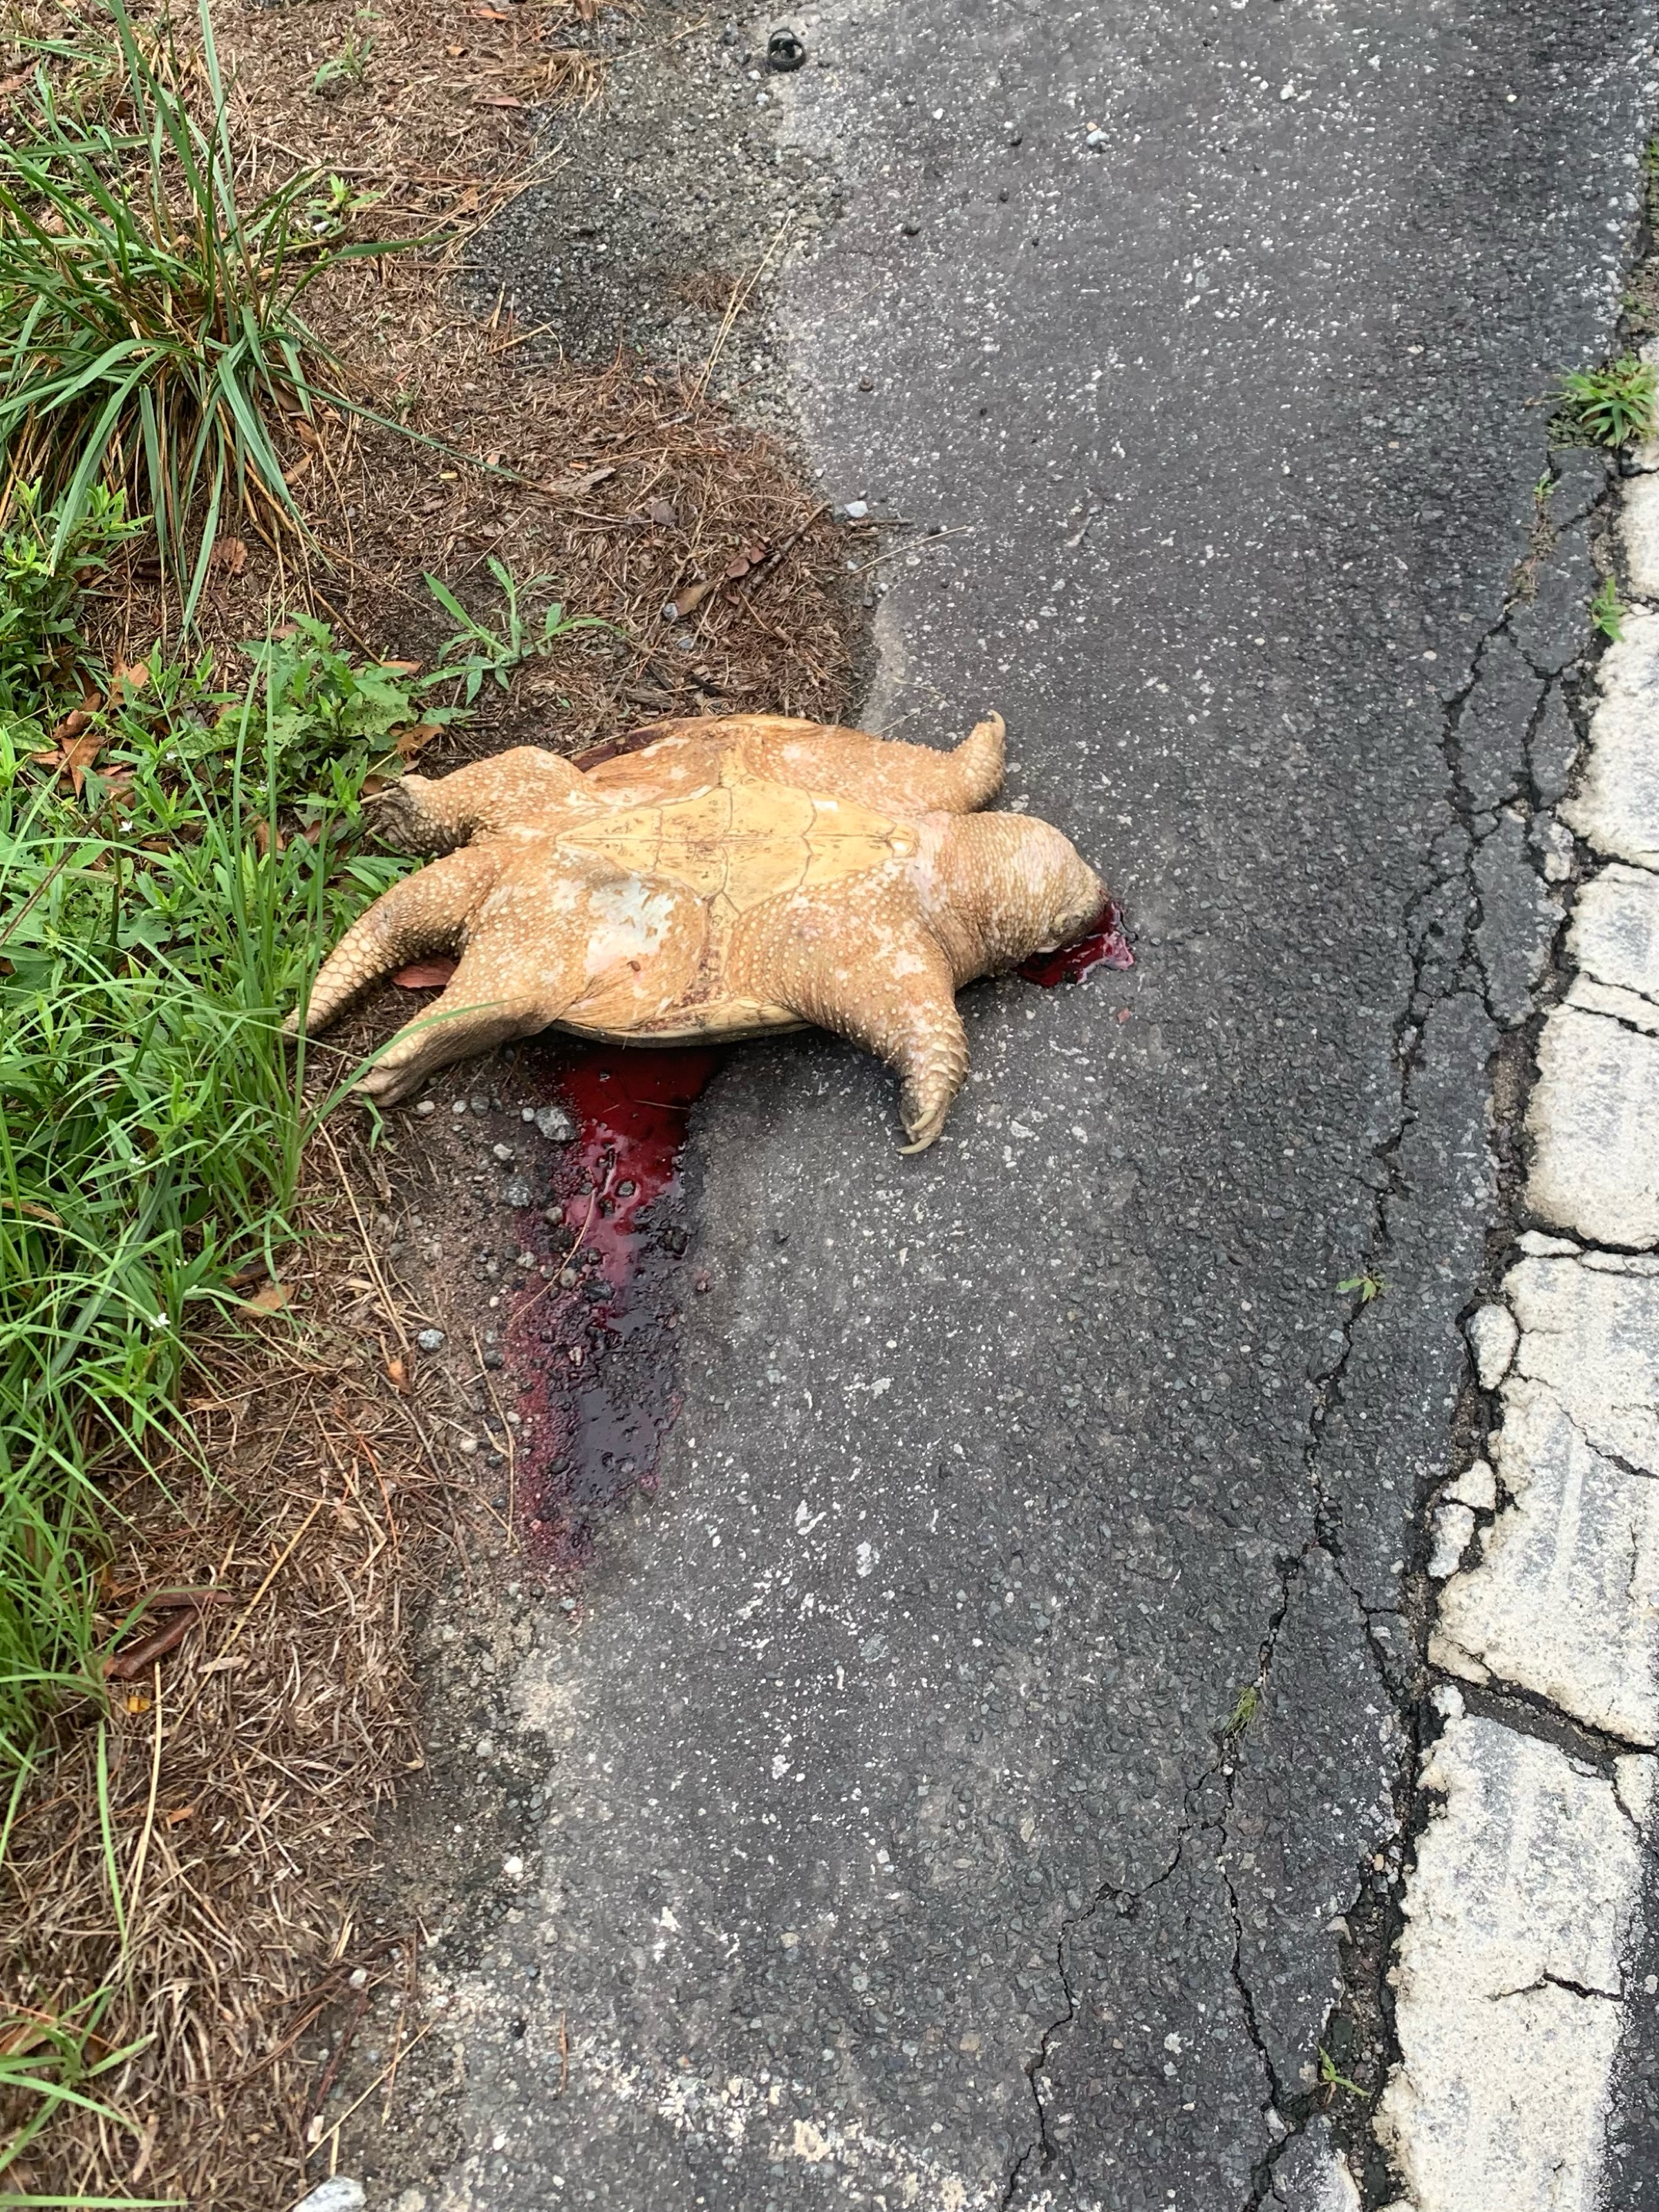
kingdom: Animalia
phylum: Chordata
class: Testudines
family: Chelydridae
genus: Chelydra
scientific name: Chelydra serpentina
